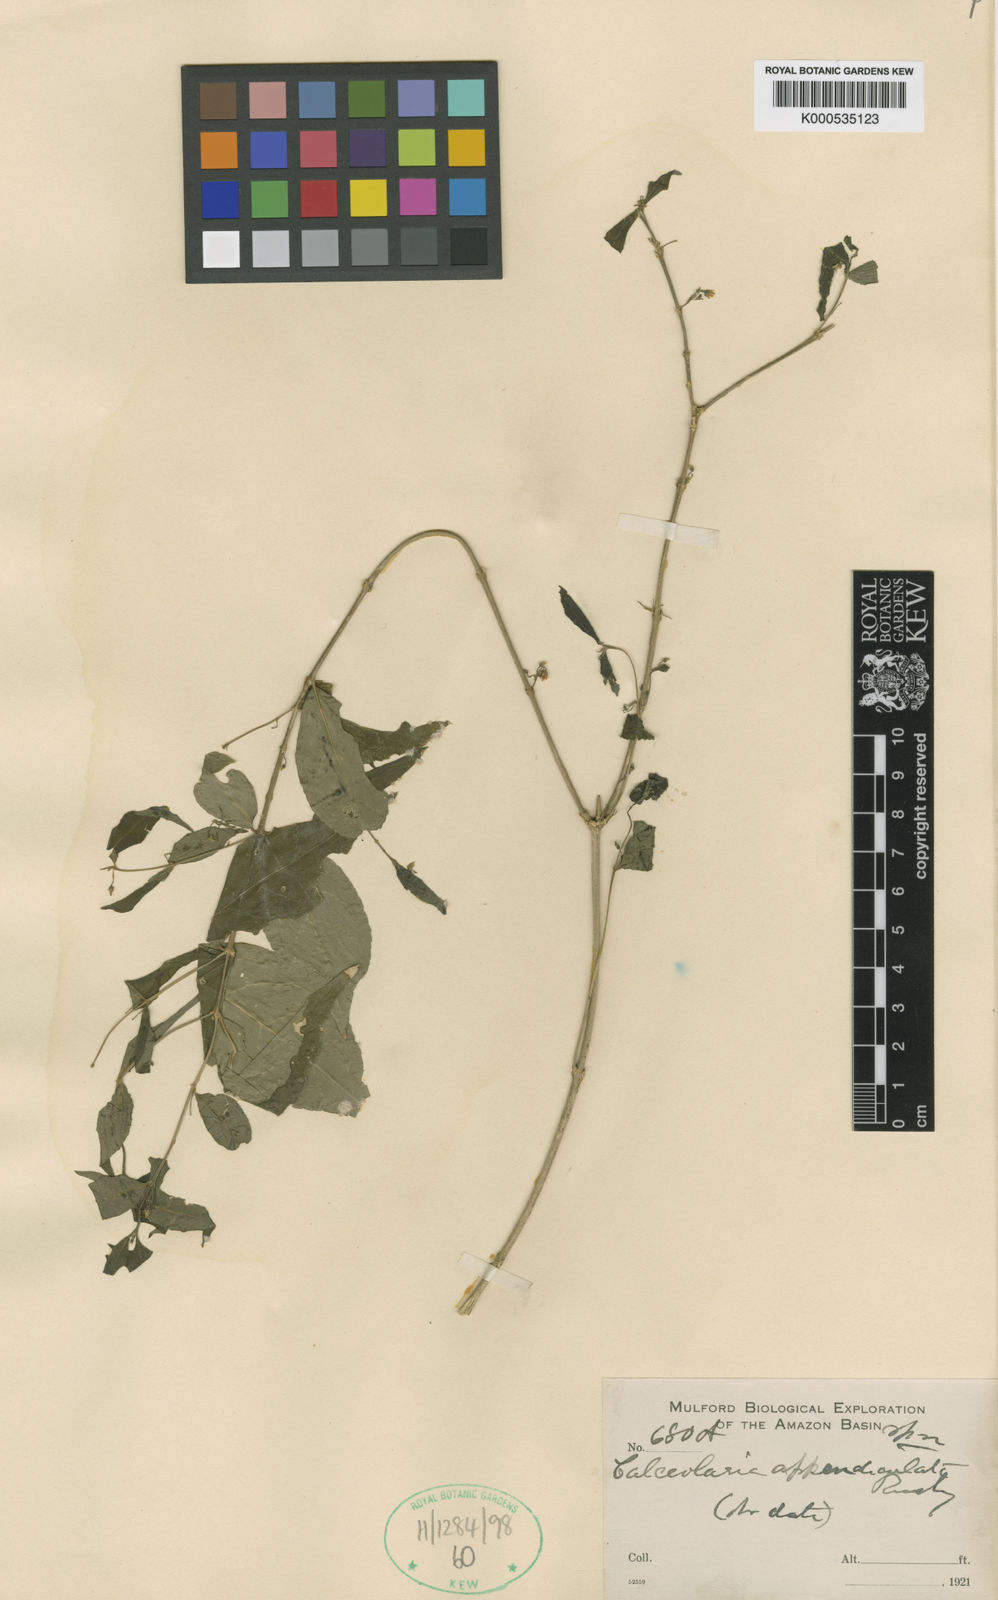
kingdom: Plantae
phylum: Tracheophyta
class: Magnoliopsida
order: Malpighiales
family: Violaceae
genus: Pombalia
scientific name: Pombalia sprucei
